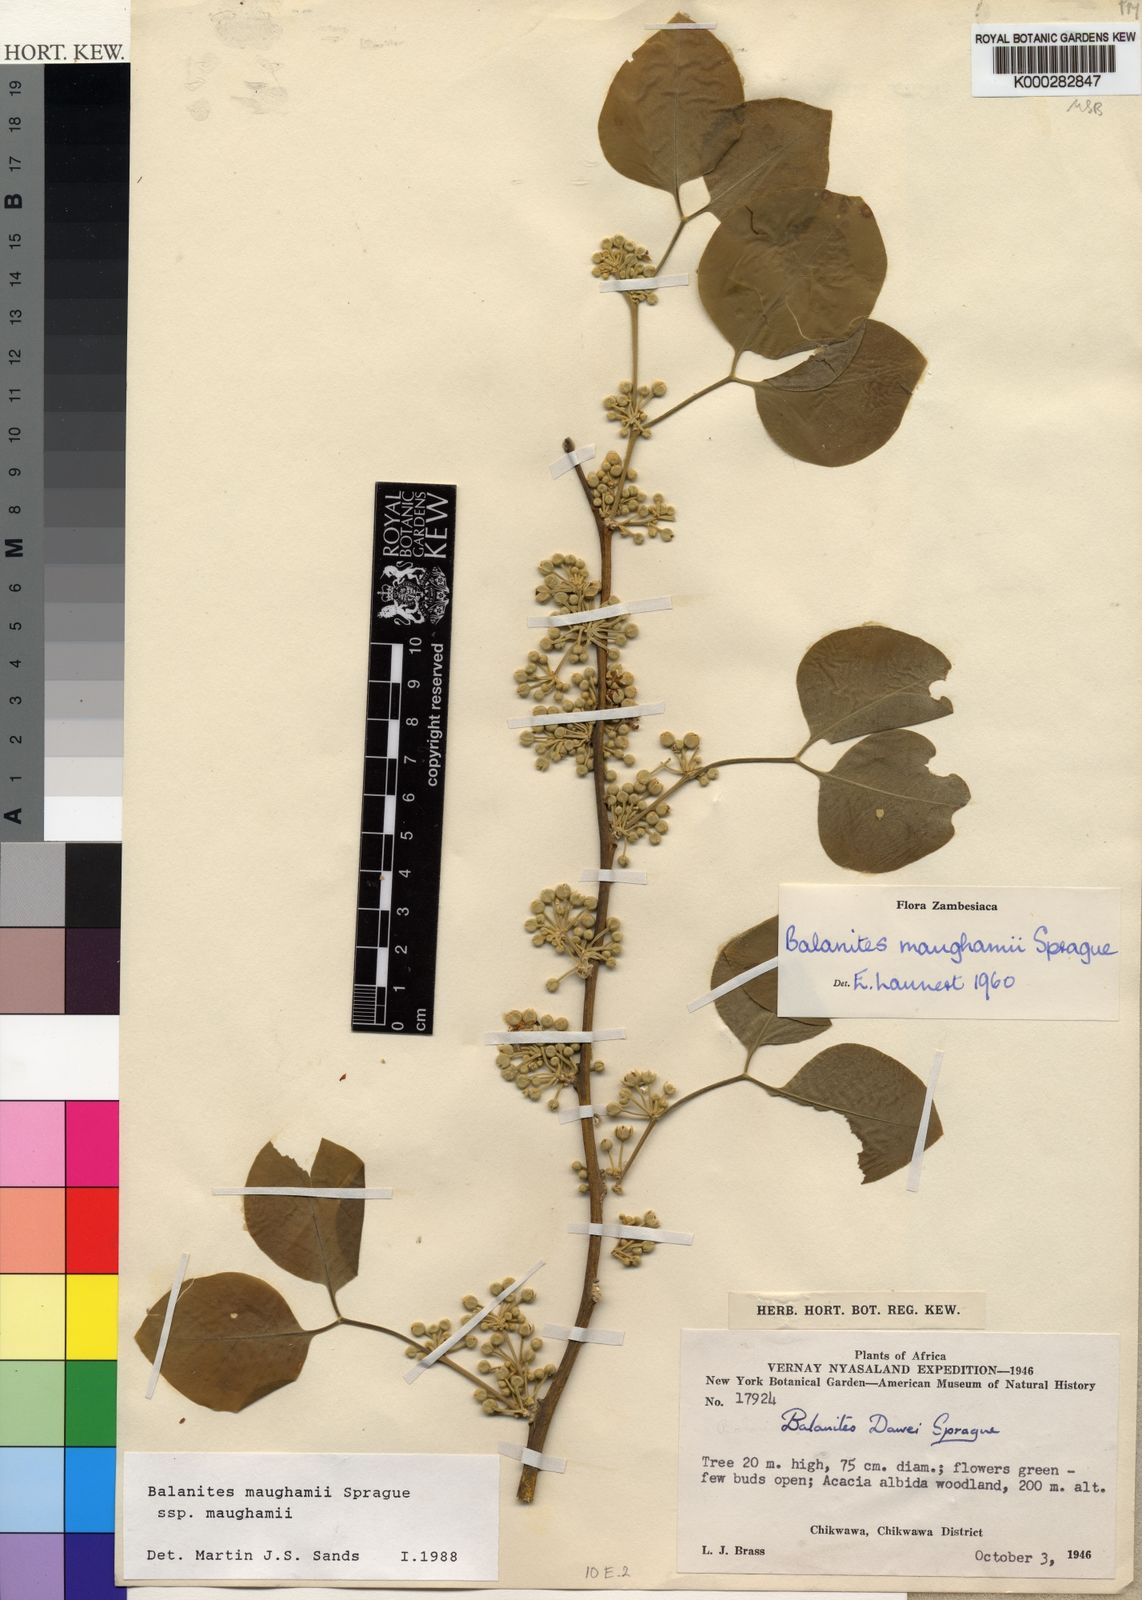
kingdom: Plantae
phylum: Tracheophyta
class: Magnoliopsida
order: Zygophyllales
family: Zygophyllaceae
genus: Balanites
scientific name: Balanites maughamii
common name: Torchwood
